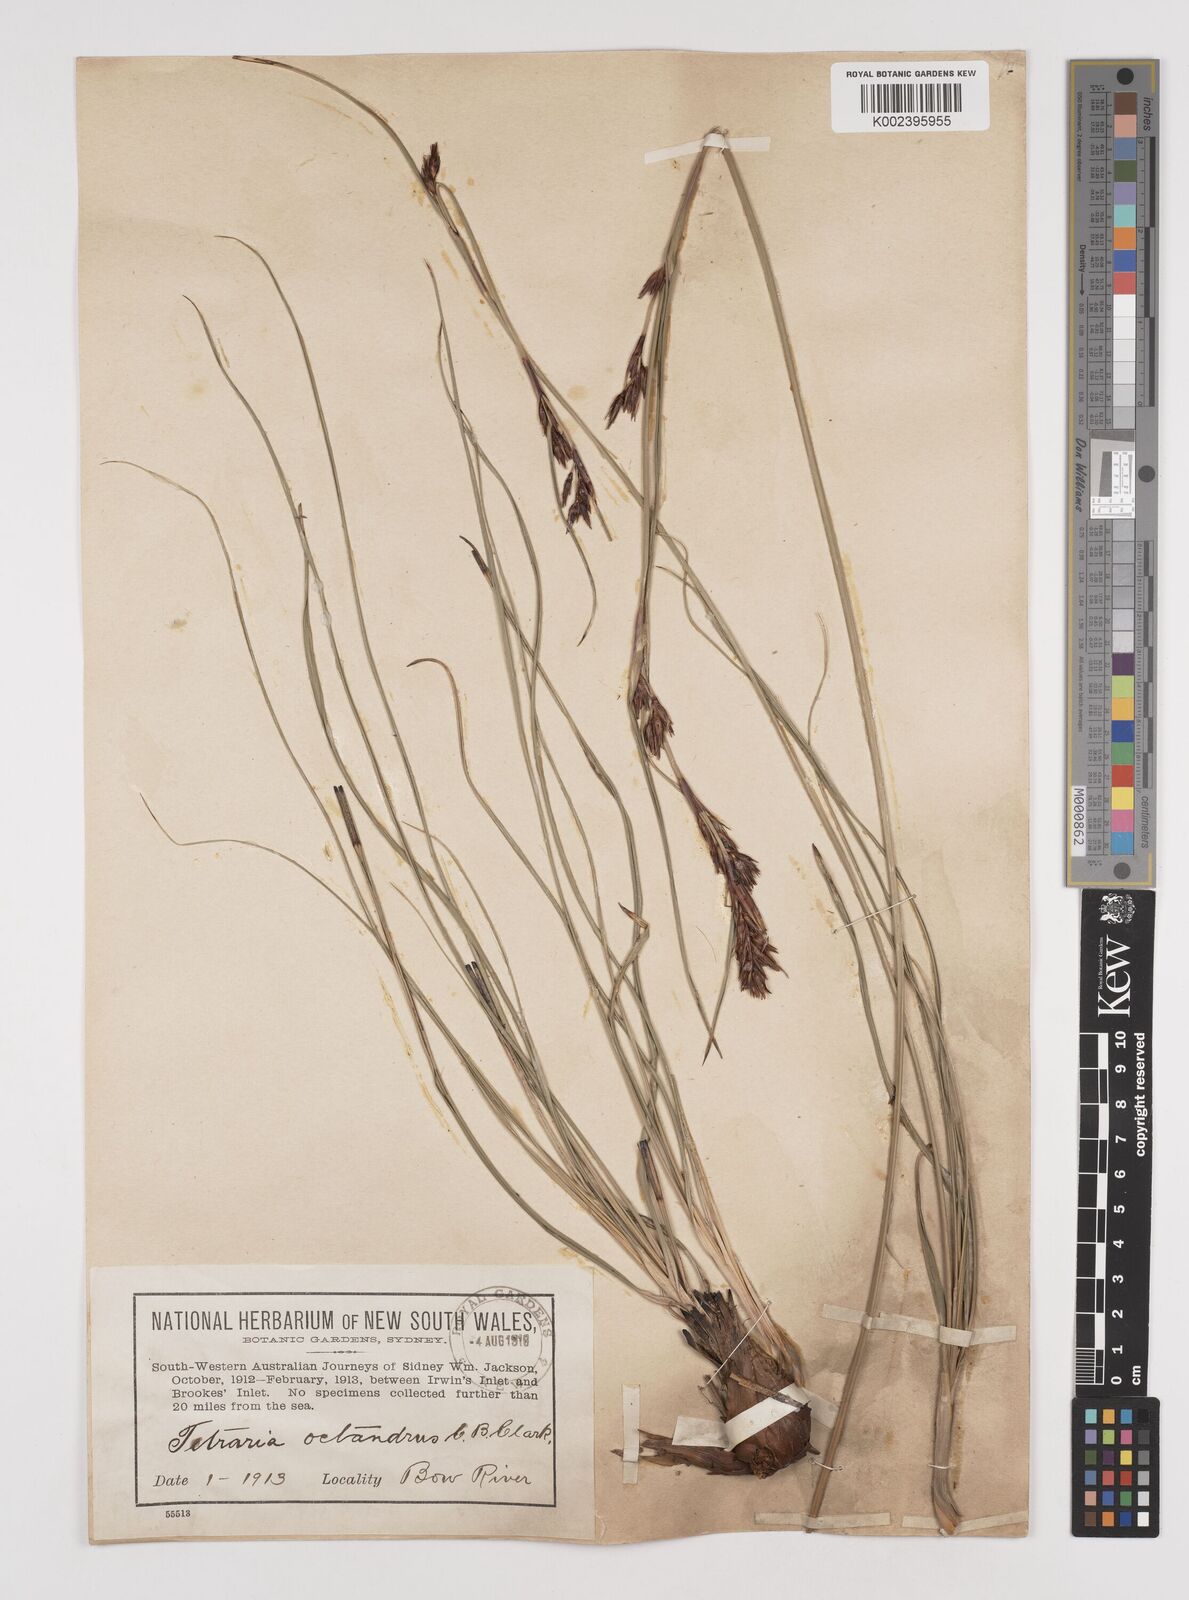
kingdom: Plantae
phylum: Tracheophyta
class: Liliopsida
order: Poales
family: Cyperaceae
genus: Tetraria
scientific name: Tetraria octandra
